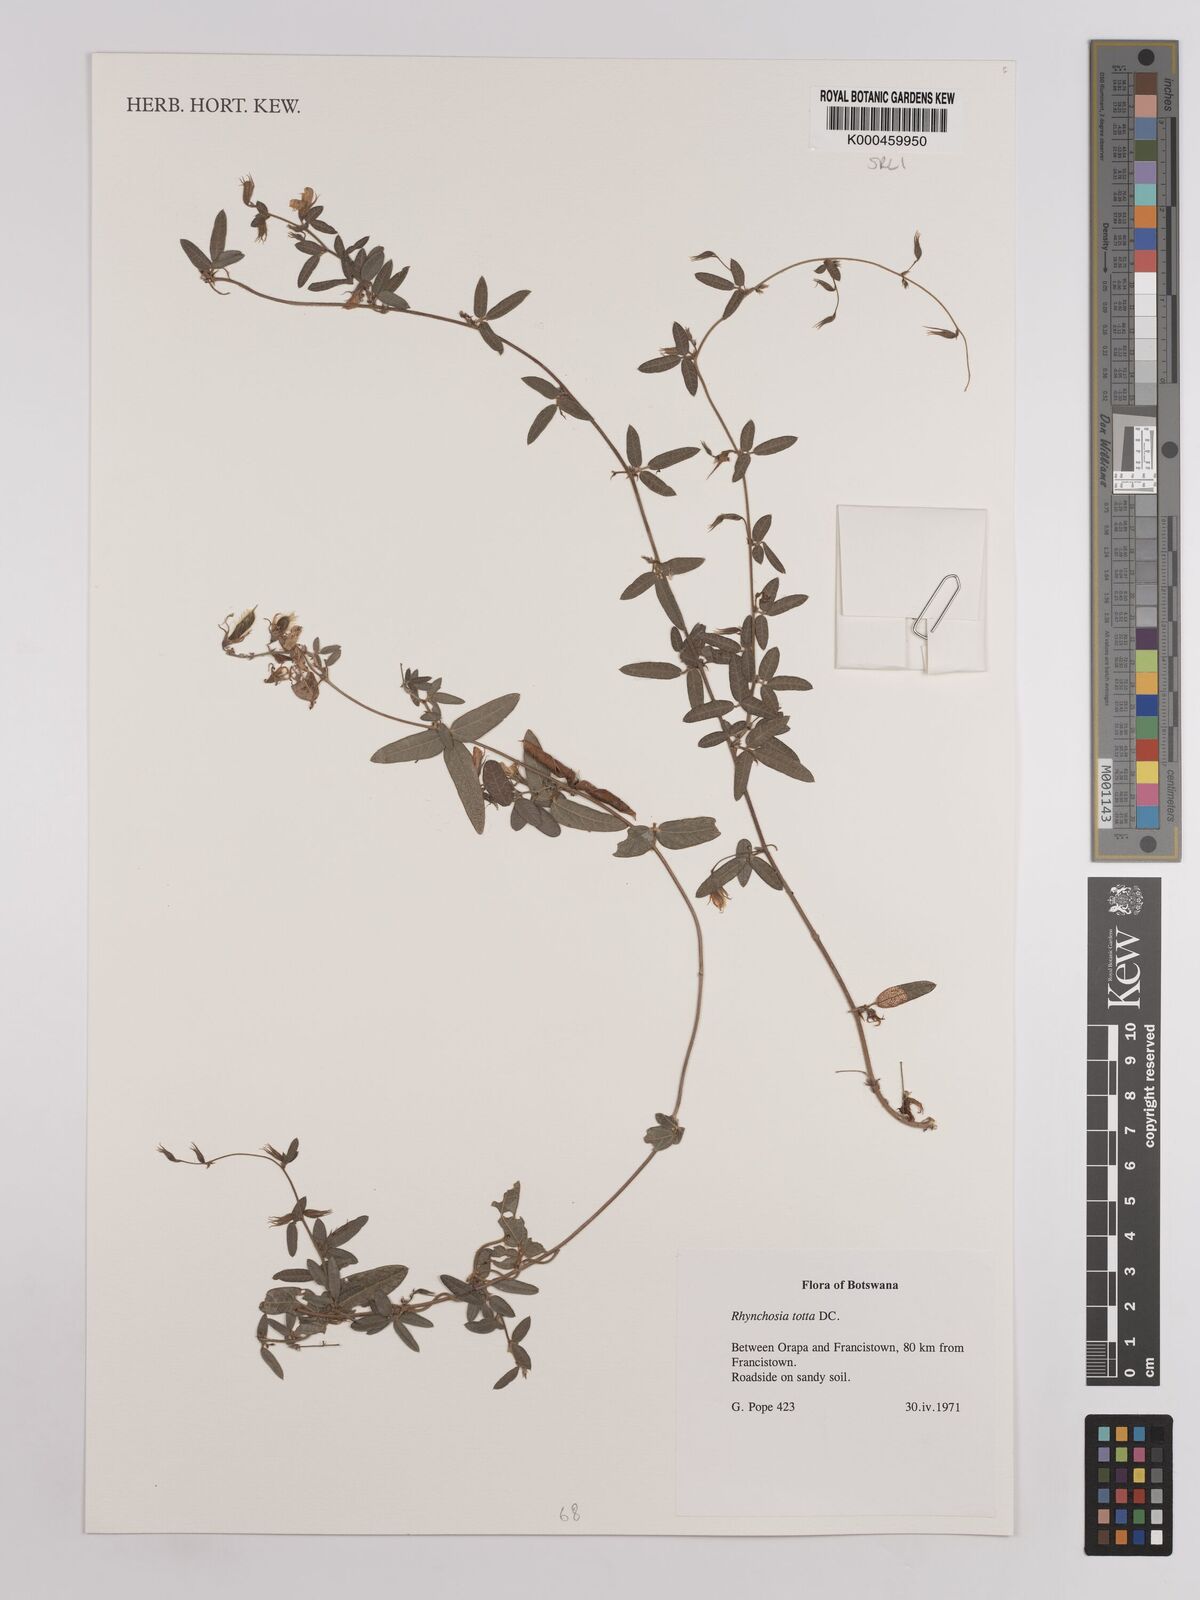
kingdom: Plantae
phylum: Tracheophyta
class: Magnoliopsida
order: Fabales
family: Fabaceae
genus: Rhynchosia
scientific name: Rhynchosia totta
